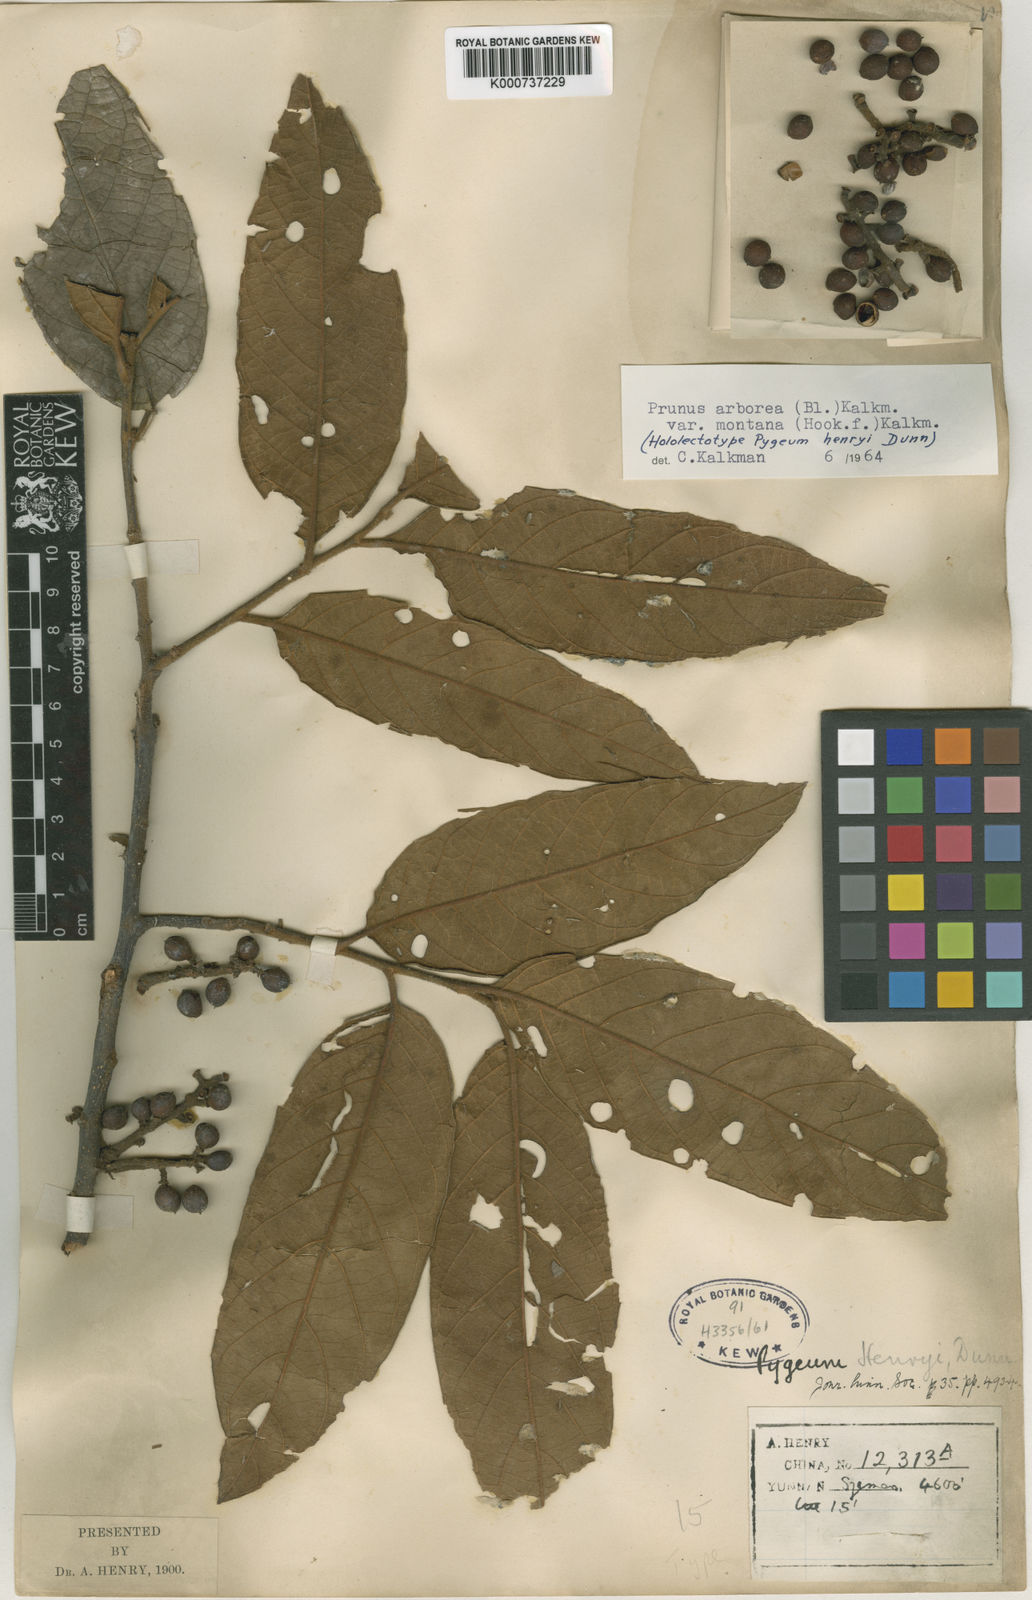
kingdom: Plantae
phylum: Tracheophyta
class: Magnoliopsida
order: Rosales
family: Rosaceae
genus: Prunus
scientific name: Prunus arborea
